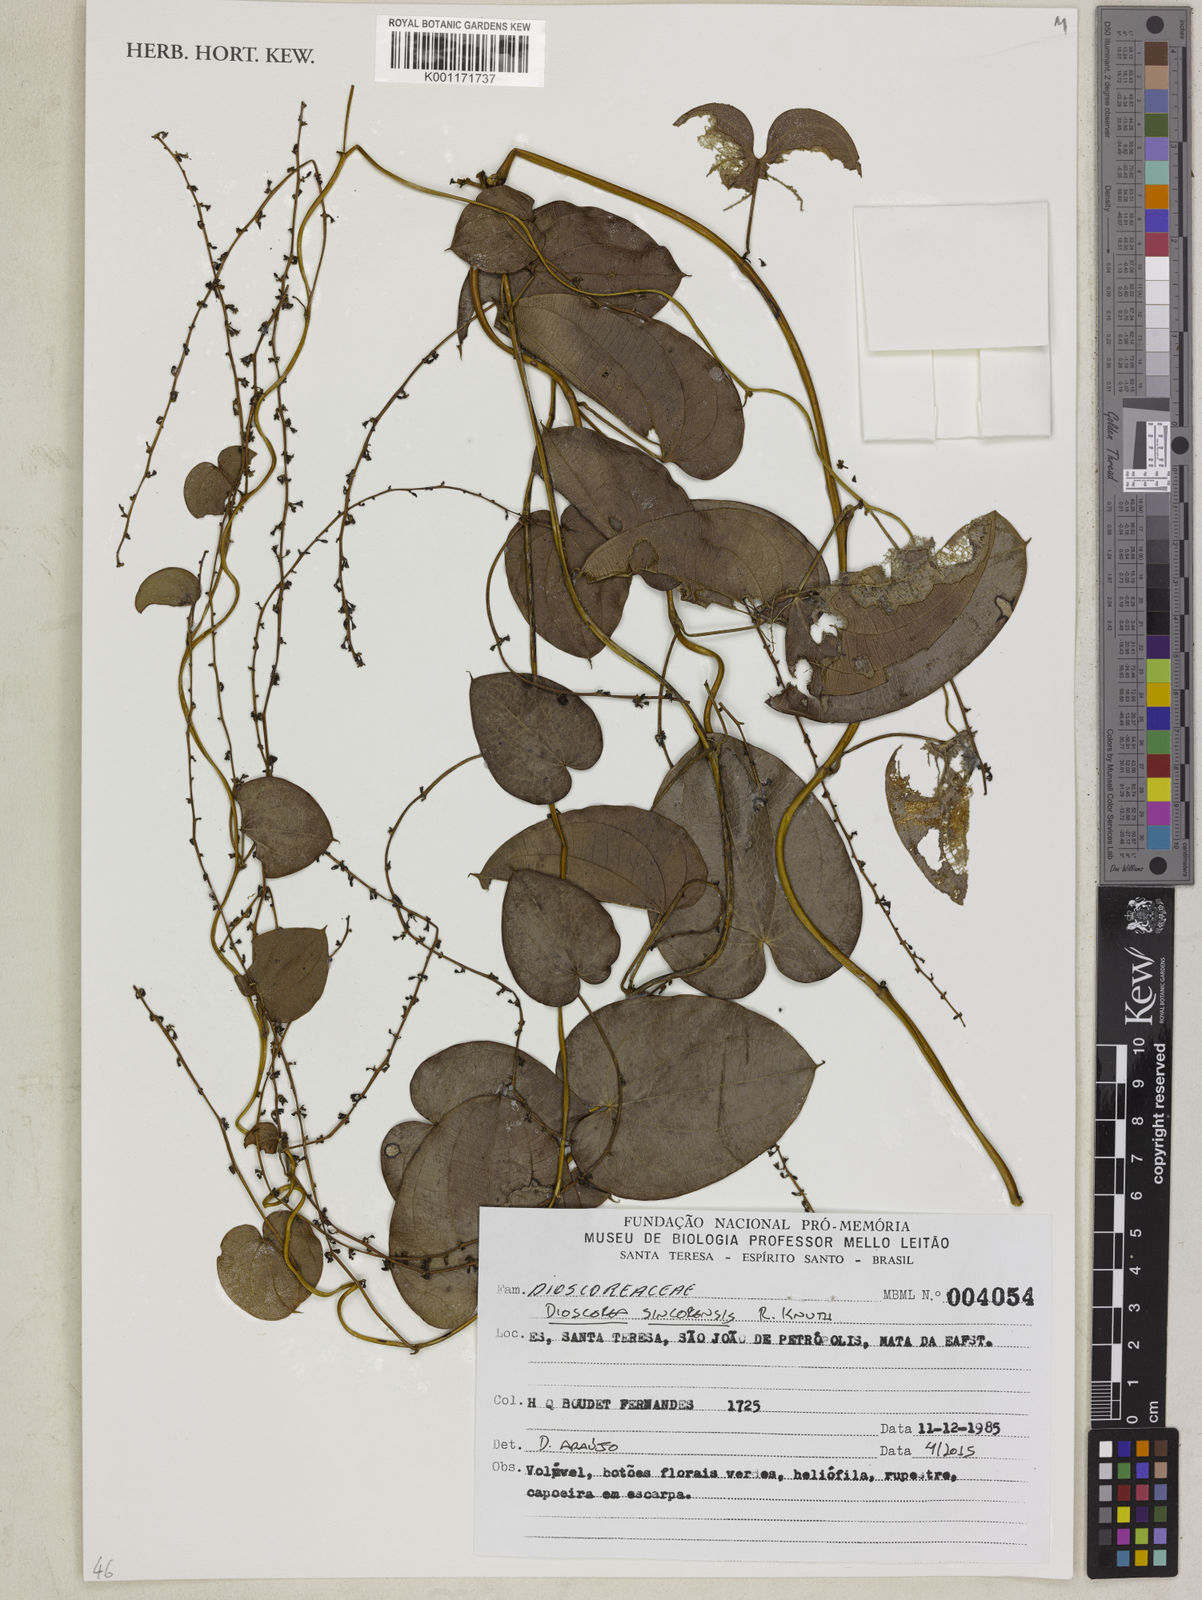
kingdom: Plantae
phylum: Tracheophyta
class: Liliopsida
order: Dioscoreales
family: Dioscoreaceae
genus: Dioscorea
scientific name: Dioscorea sincorensis
